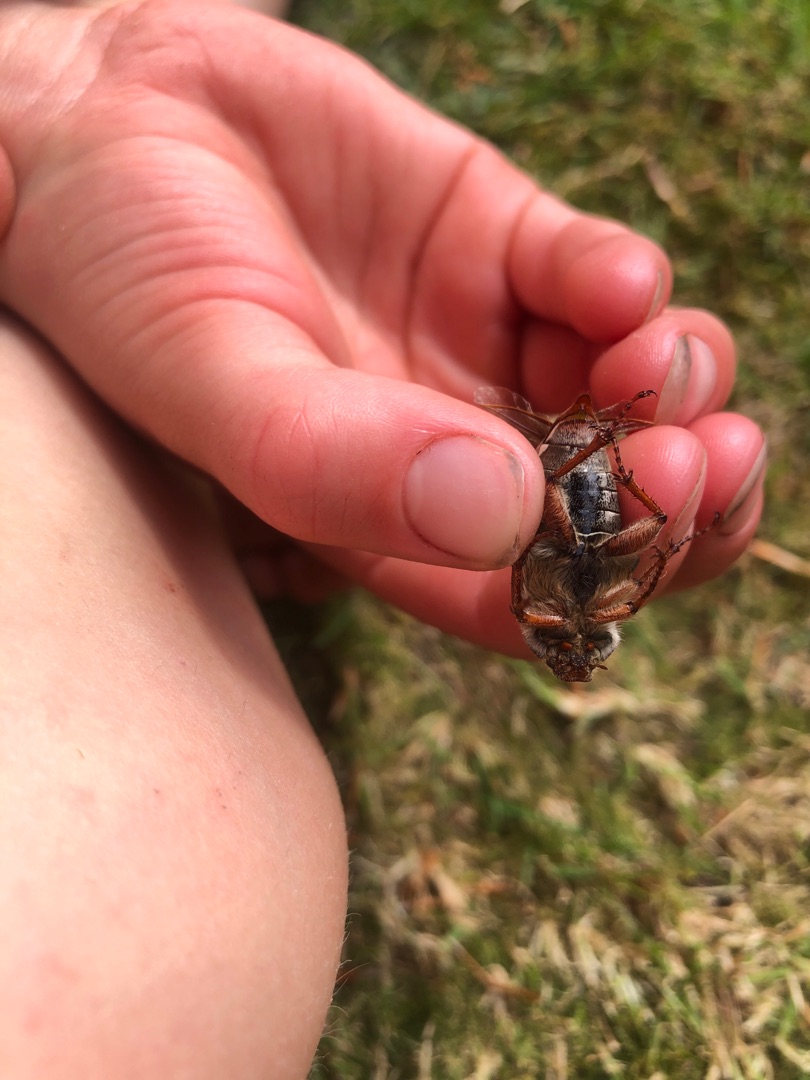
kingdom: Animalia
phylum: Arthropoda
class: Insecta
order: Coleoptera
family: Scarabaeidae
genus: Melolontha
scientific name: Melolontha melolontha
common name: Almindelig oldenborre
